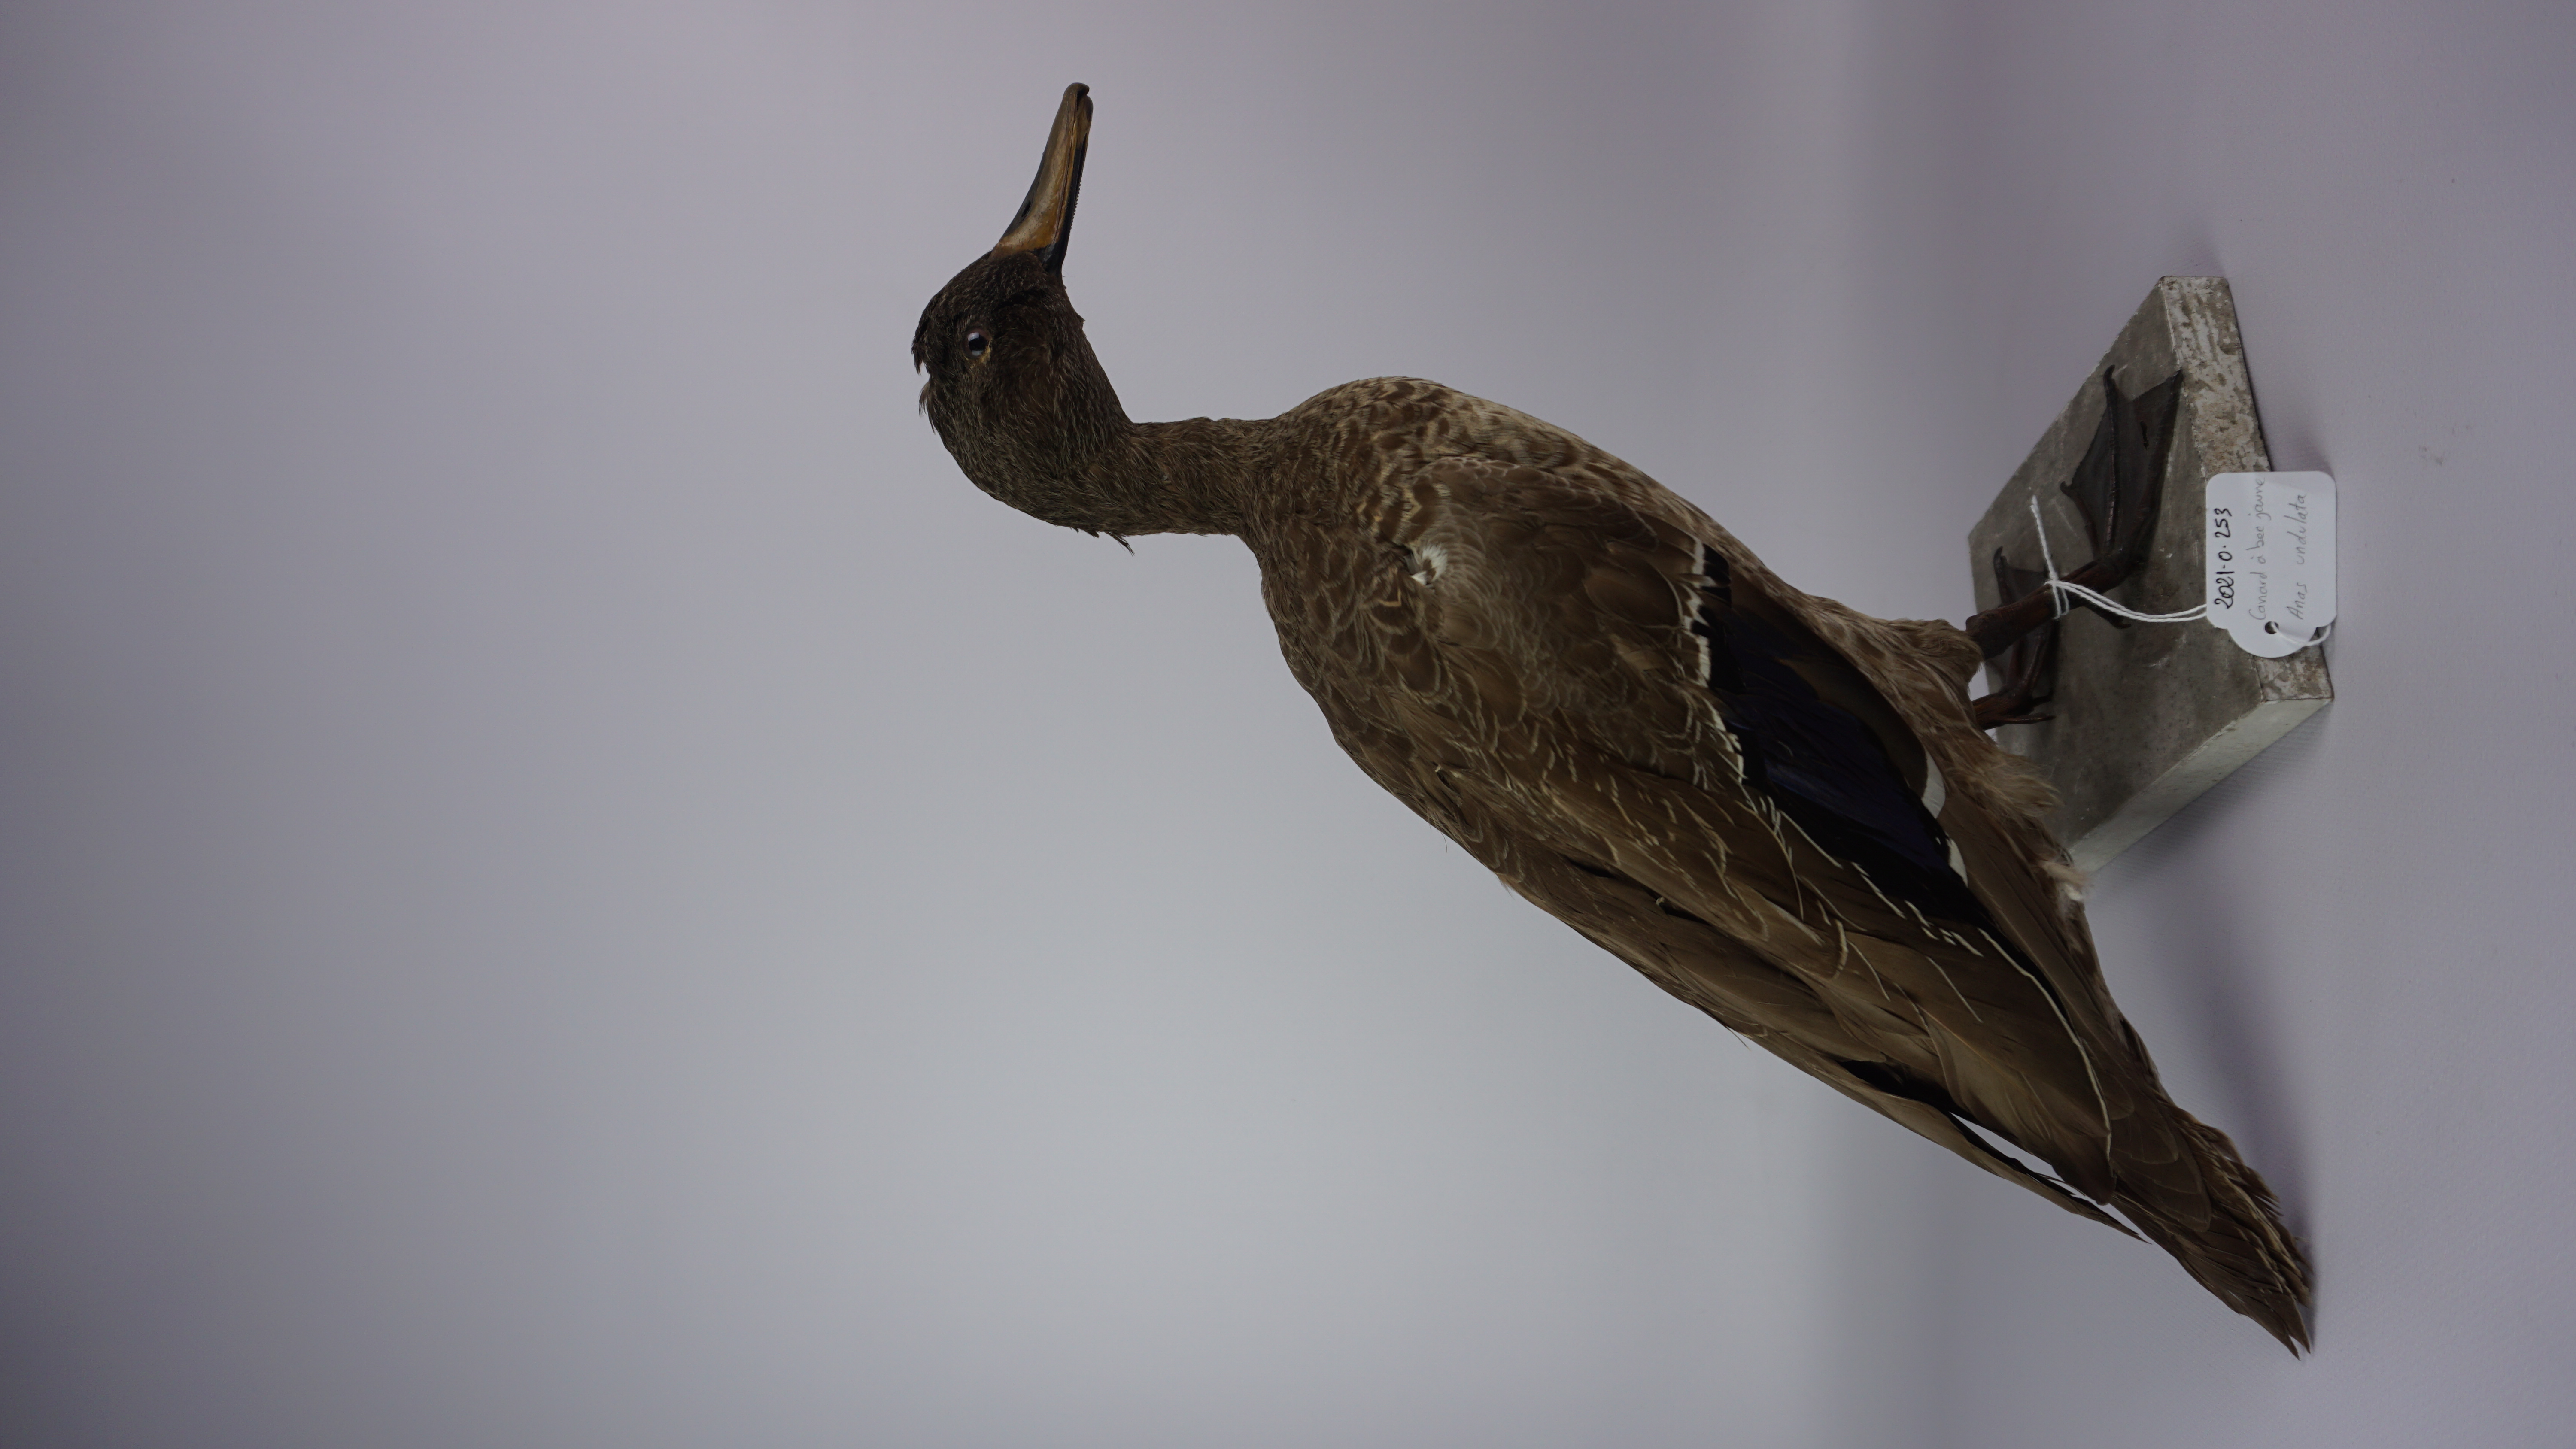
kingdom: Animalia
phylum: Chordata
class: Aves
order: Anseriformes
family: Anatidae
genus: Anas
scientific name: Anas undulata
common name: Yellow-billed duck
